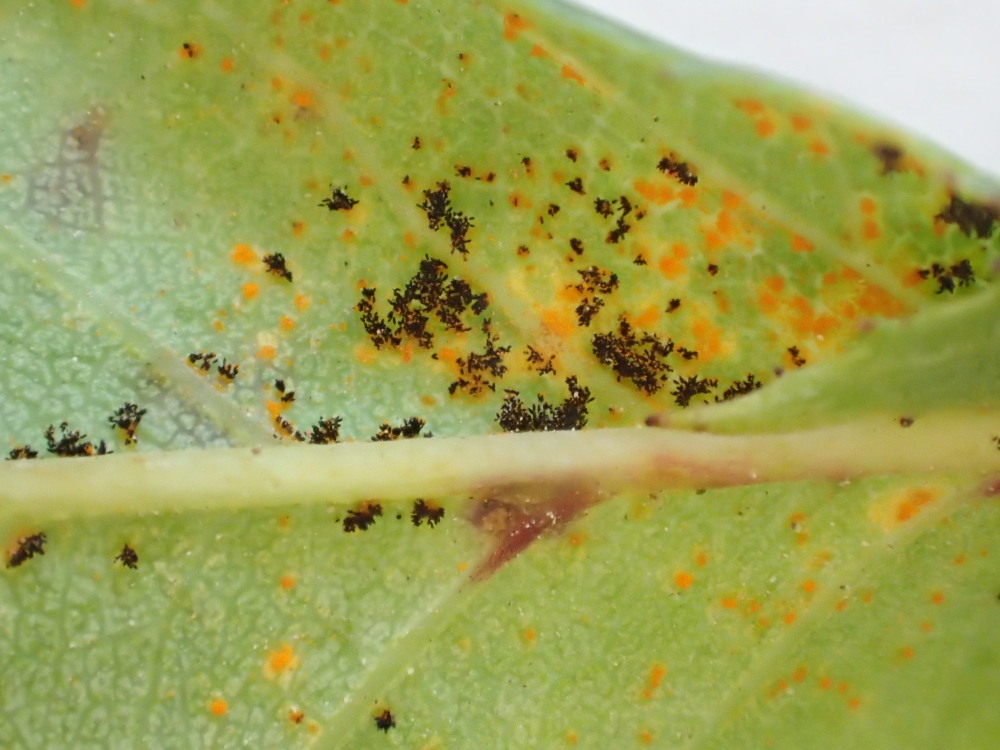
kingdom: Fungi
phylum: Basidiomycota
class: Pucciniomycetes
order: Pucciniales
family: Phragmidiaceae
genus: Phragmidium
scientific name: Phragmidium tuberculatum
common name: Rose rust
